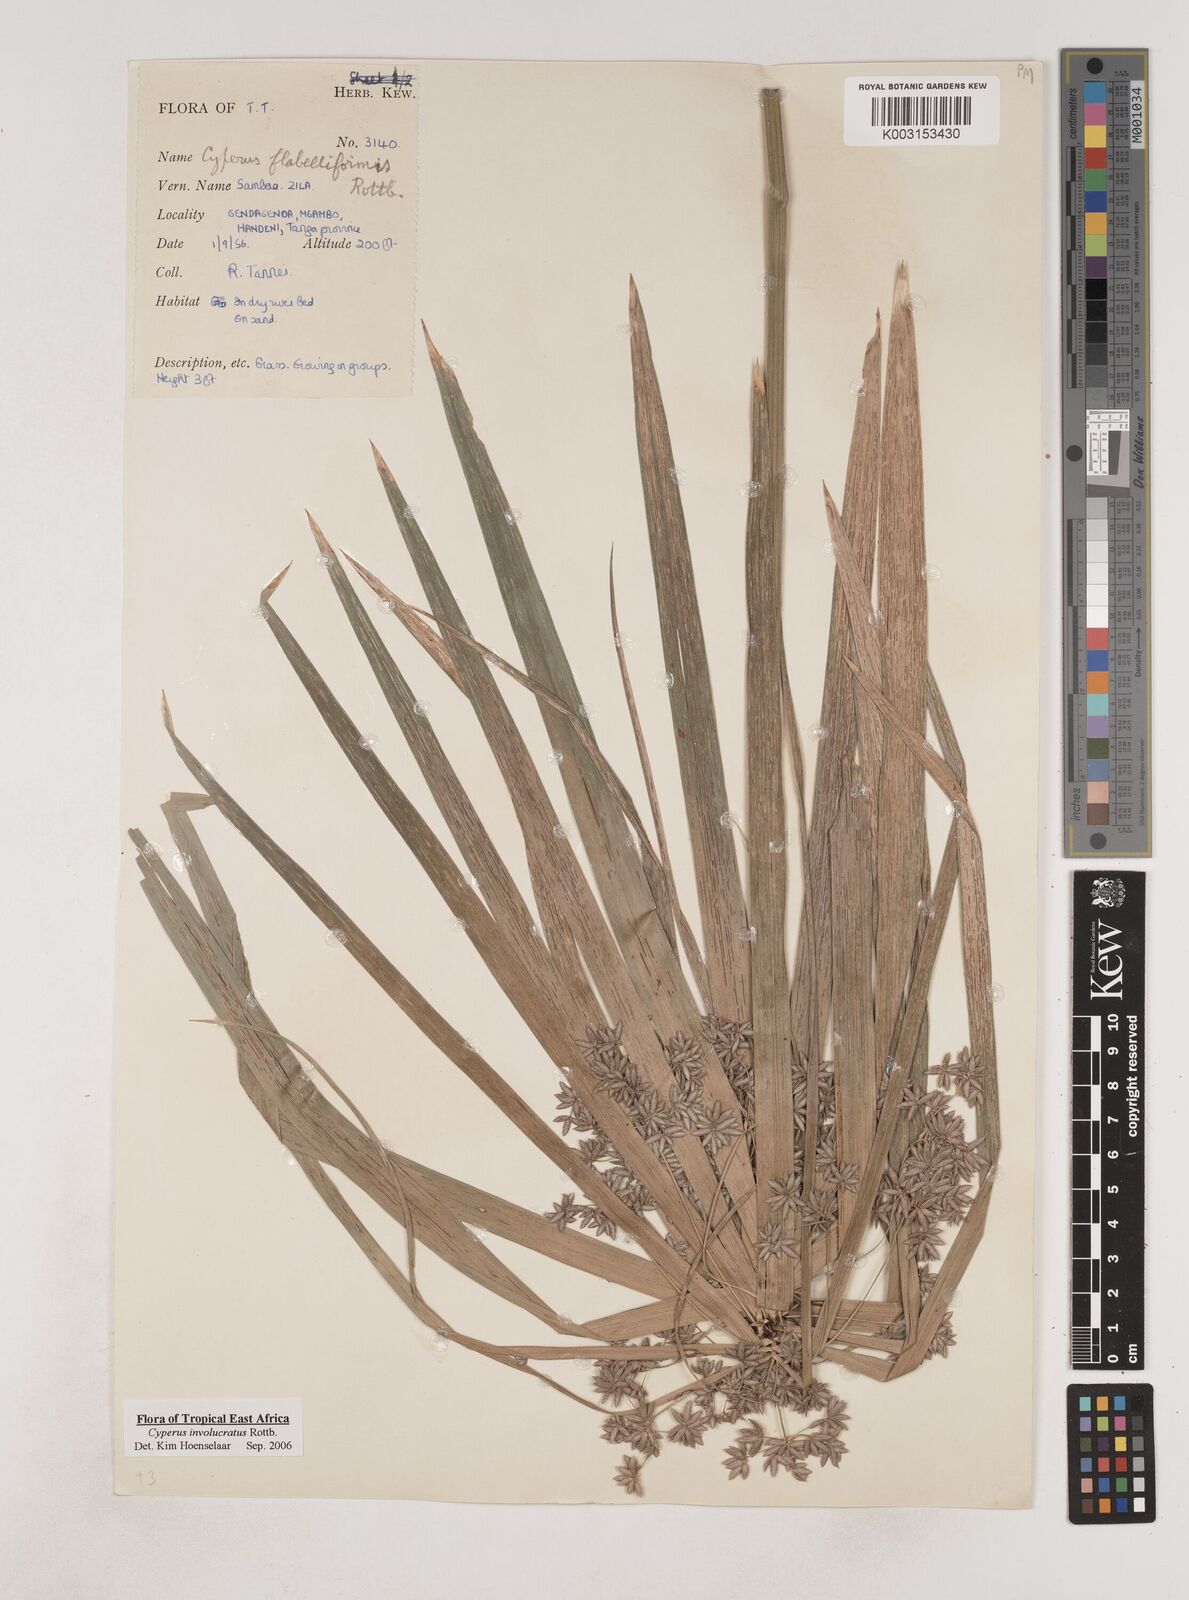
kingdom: Plantae
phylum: Tracheophyta
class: Liliopsida
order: Poales
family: Cyperaceae
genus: Cyperus
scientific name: Cyperus
